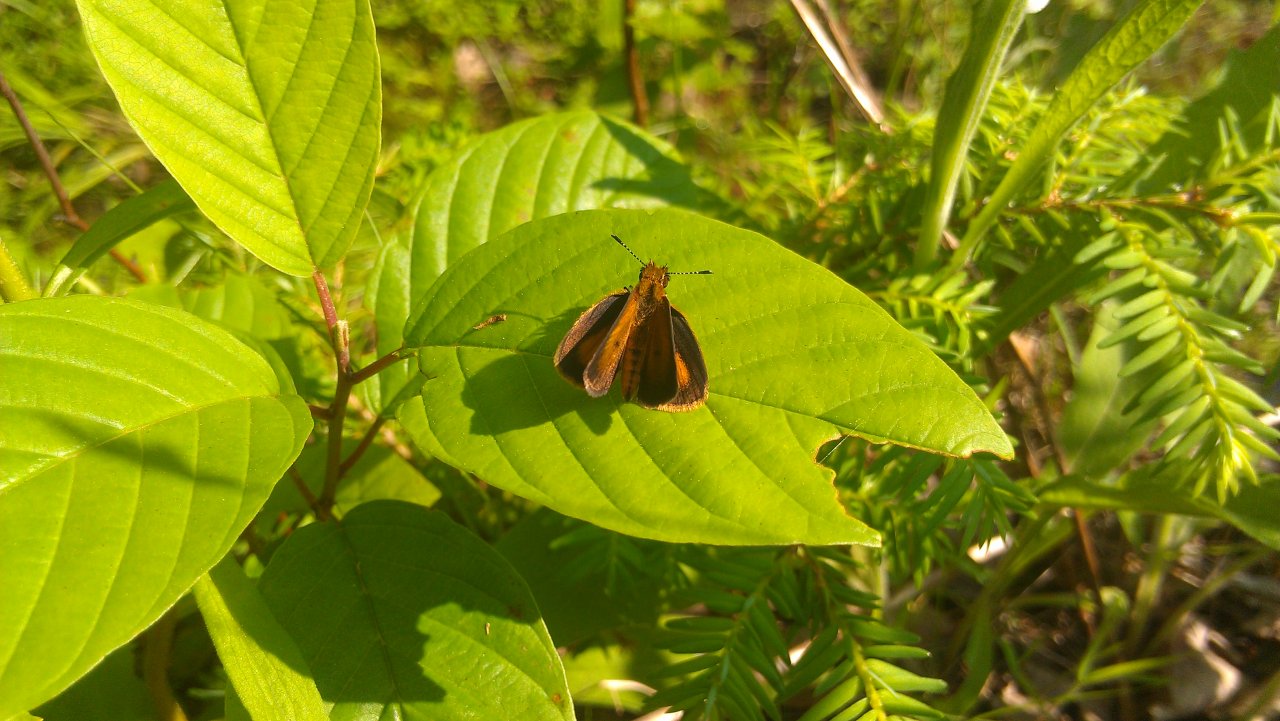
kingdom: Animalia
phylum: Arthropoda
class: Insecta
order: Lepidoptera
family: Hesperiidae
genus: Ancyloxypha
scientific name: Ancyloxypha numitor
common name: Least Skipper
